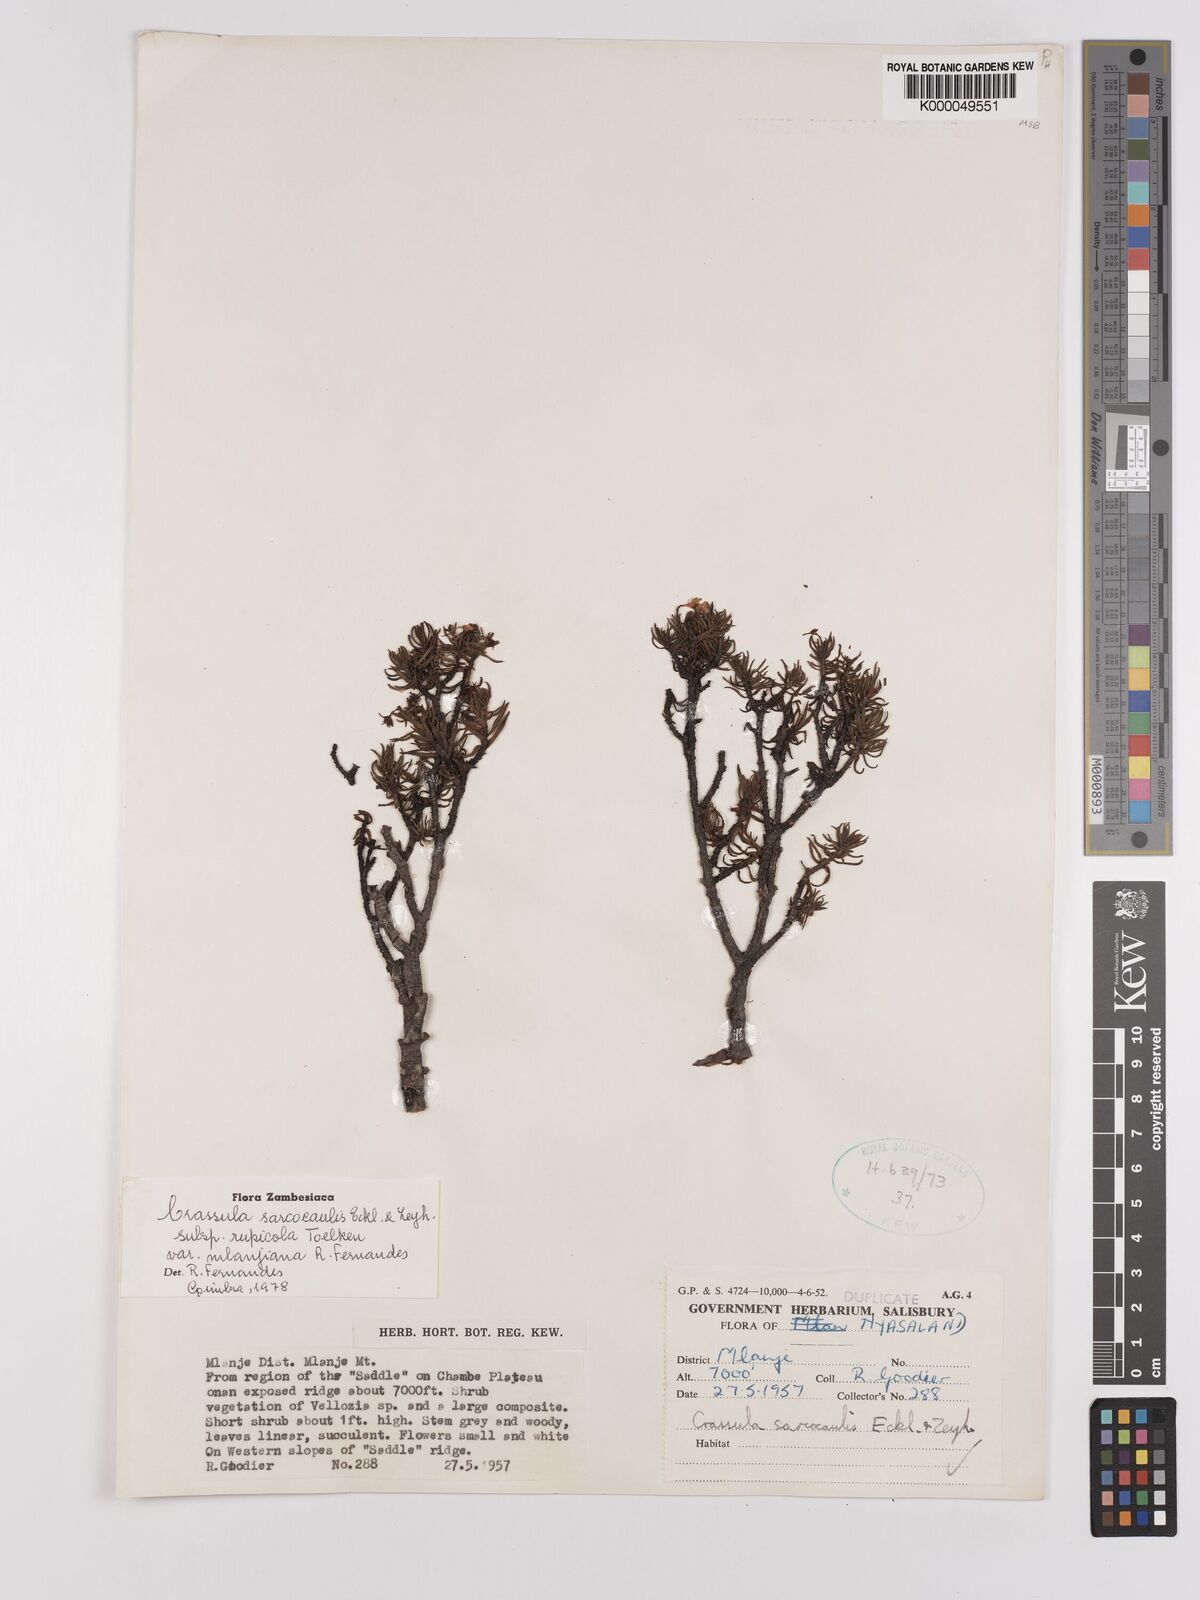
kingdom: Plantae
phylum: Tracheophyta
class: Magnoliopsida
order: Saxifragales
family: Crassulaceae
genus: Crassula
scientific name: Crassula sarcocaulis
